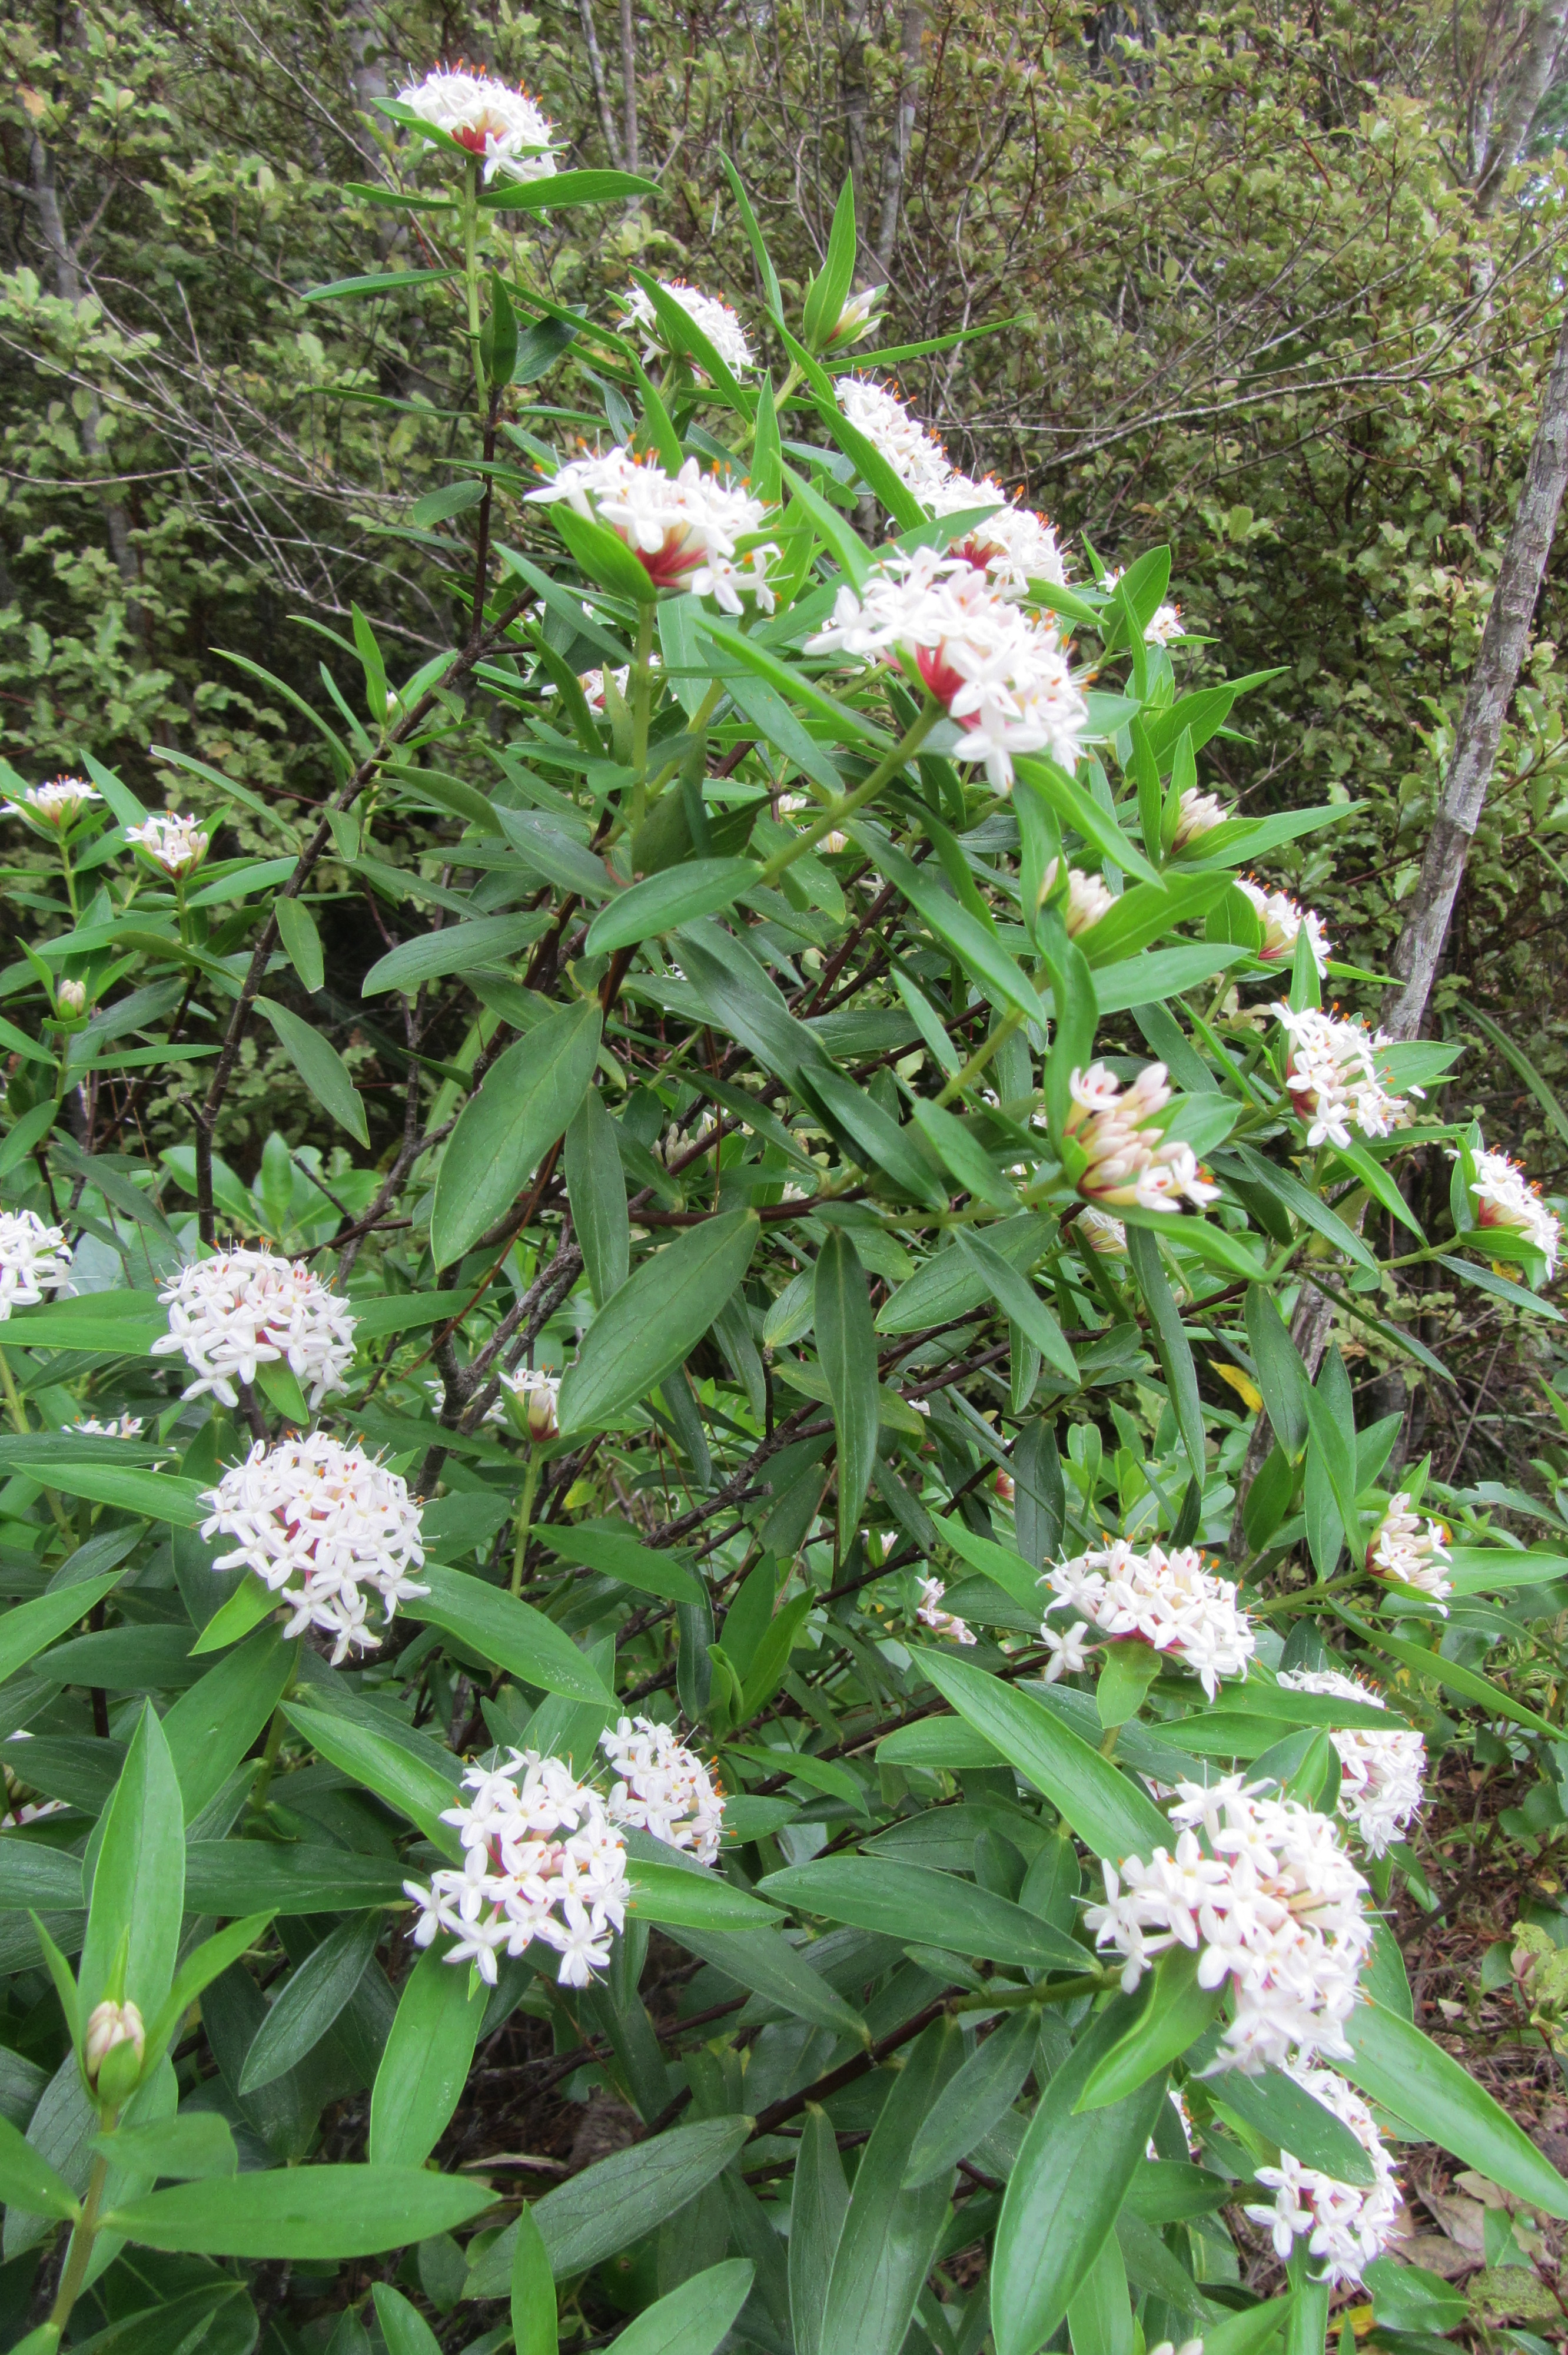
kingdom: Plantae
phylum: Tracheophyta
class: Magnoliopsida
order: Malvales
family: Thymelaeaceae
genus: Pimelea
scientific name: Pimelea longifolia
